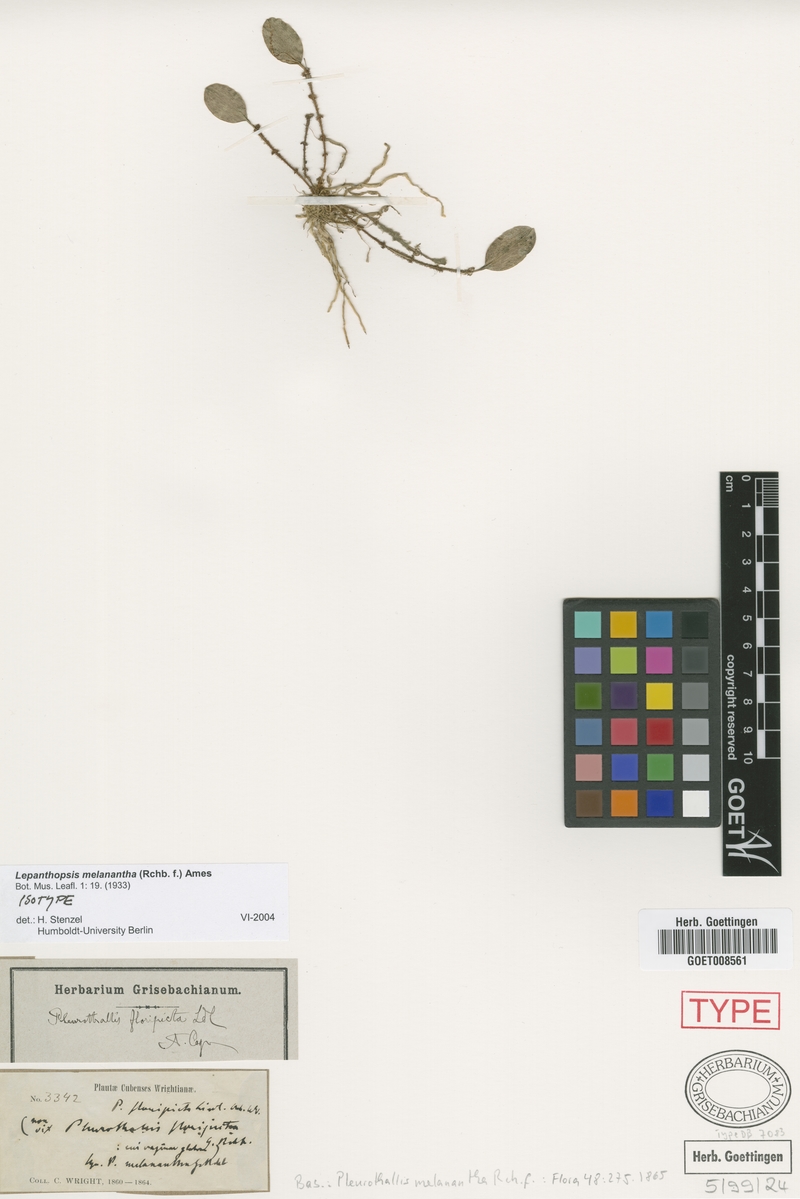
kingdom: Plantae
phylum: Tracheophyta
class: Liliopsida
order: Asparagales
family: Orchidaceae
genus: Lepanthopsis
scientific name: Lepanthopsis melanantha
